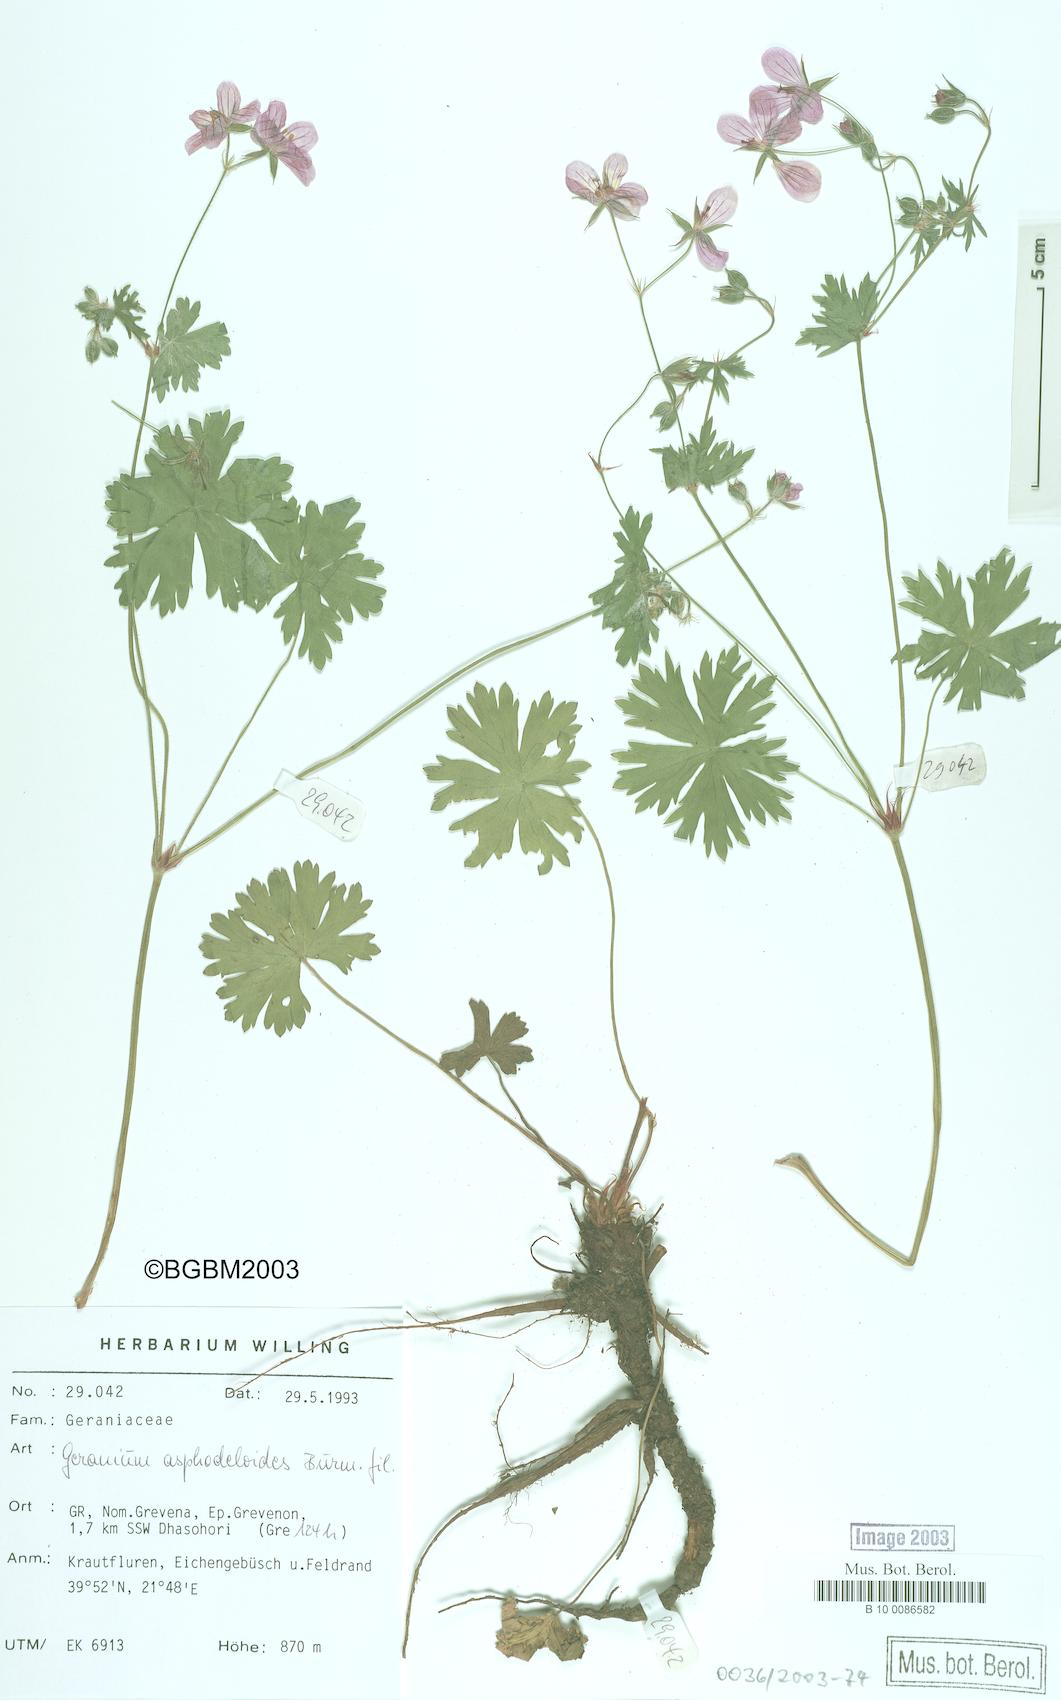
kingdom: Plantae
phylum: Tracheophyta
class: Magnoliopsida
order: Geraniales
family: Geraniaceae
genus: Geranium
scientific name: Geranium asphodeloides
